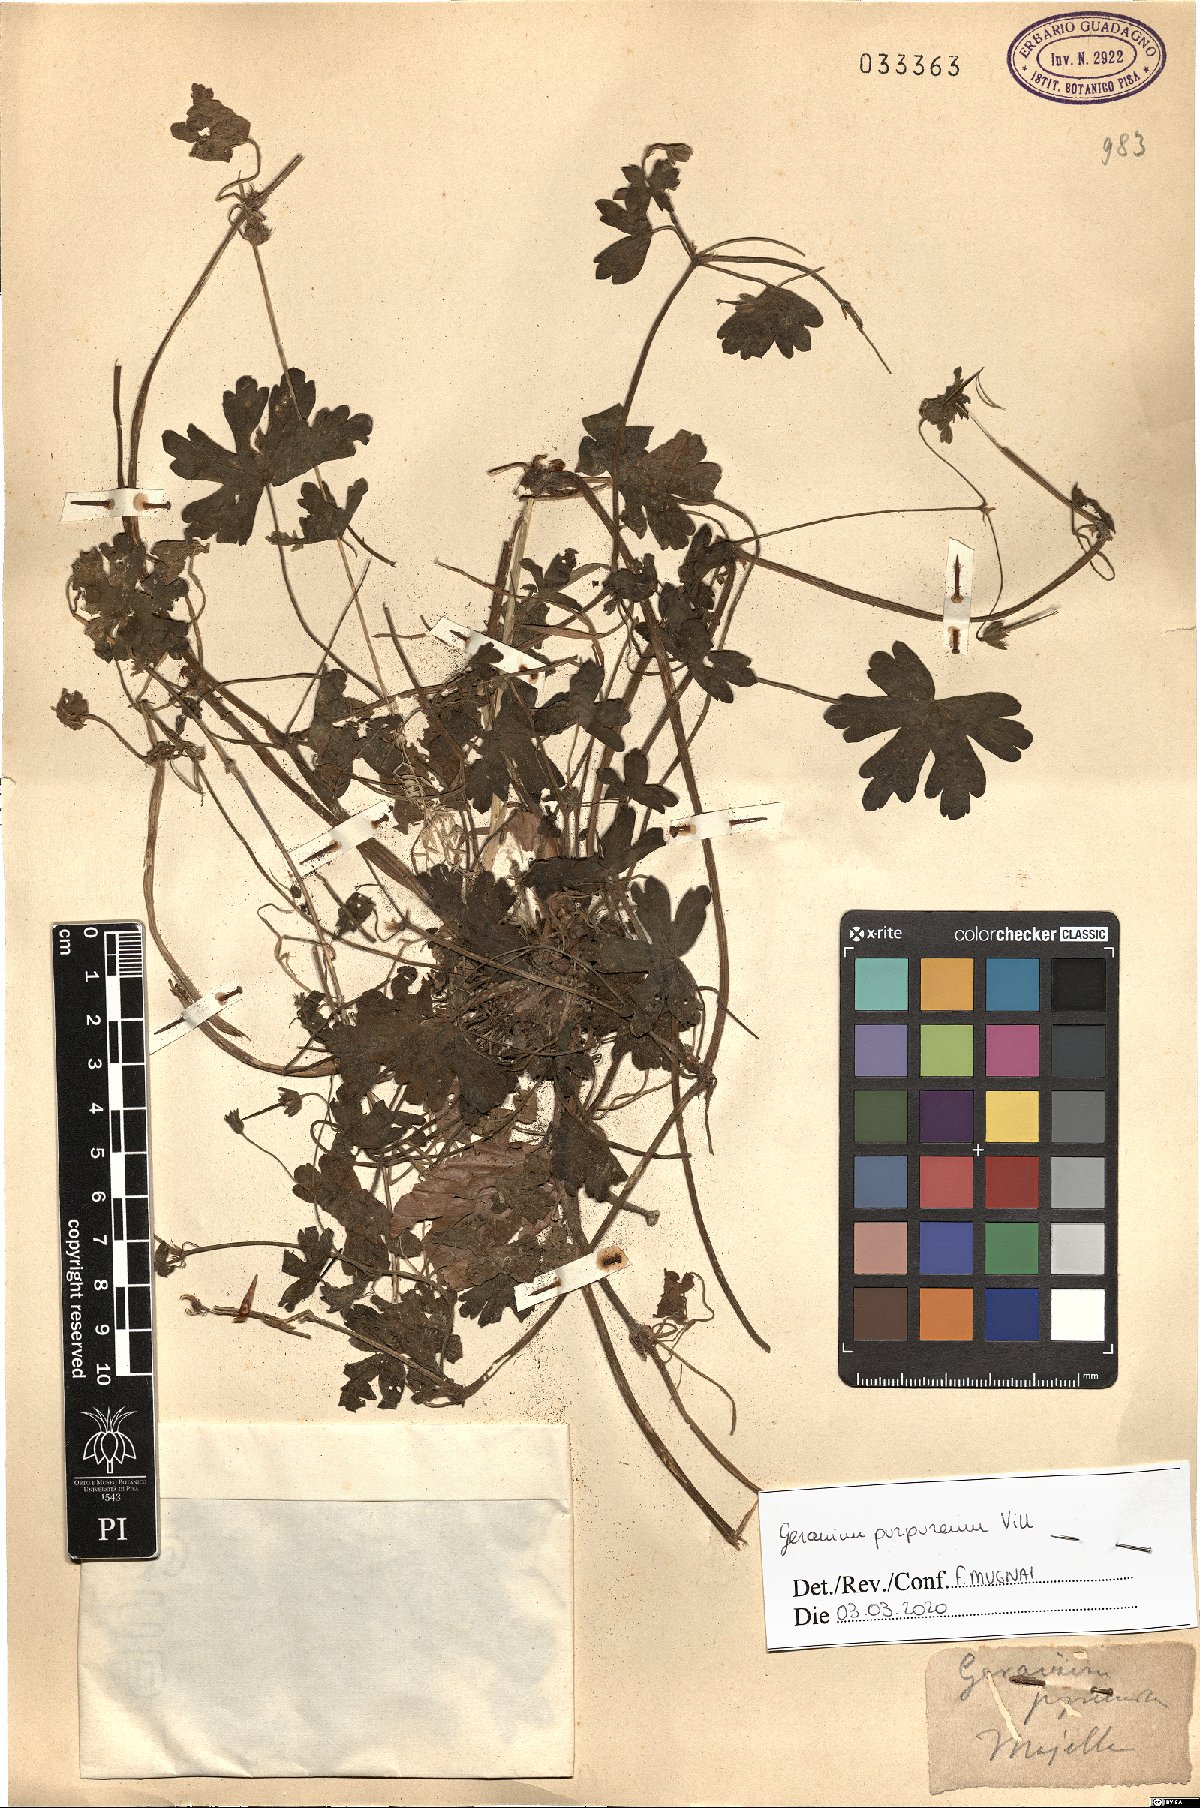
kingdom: Plantae
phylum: Tracheophyta
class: Magnoliopsida
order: Geraniales
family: Geraniaceae
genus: Geranium
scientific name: Geranium purpureum
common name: Little-robin
